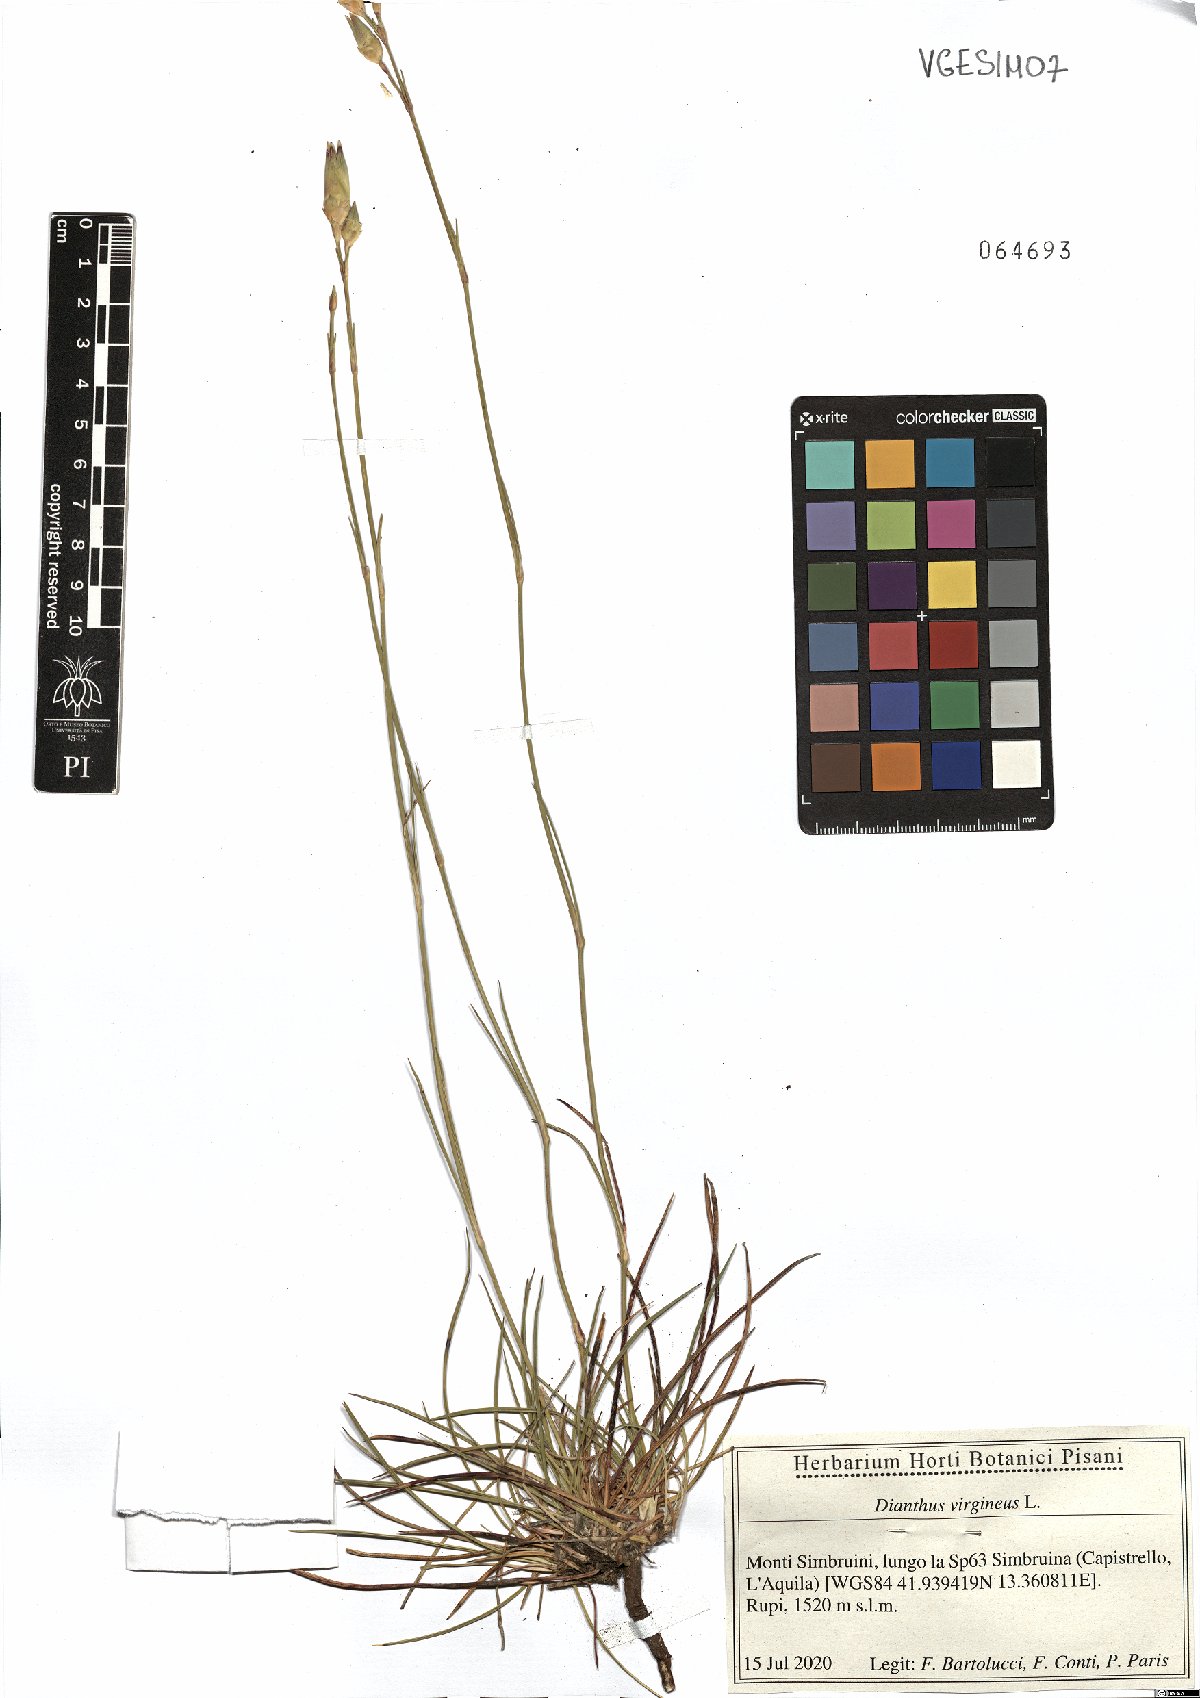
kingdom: Plantae
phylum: Tracheophyta
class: Magnoliopsida
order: Caryophyllales
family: Caryophyllaceae
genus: Dianthus
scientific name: Dianthus virgineus
